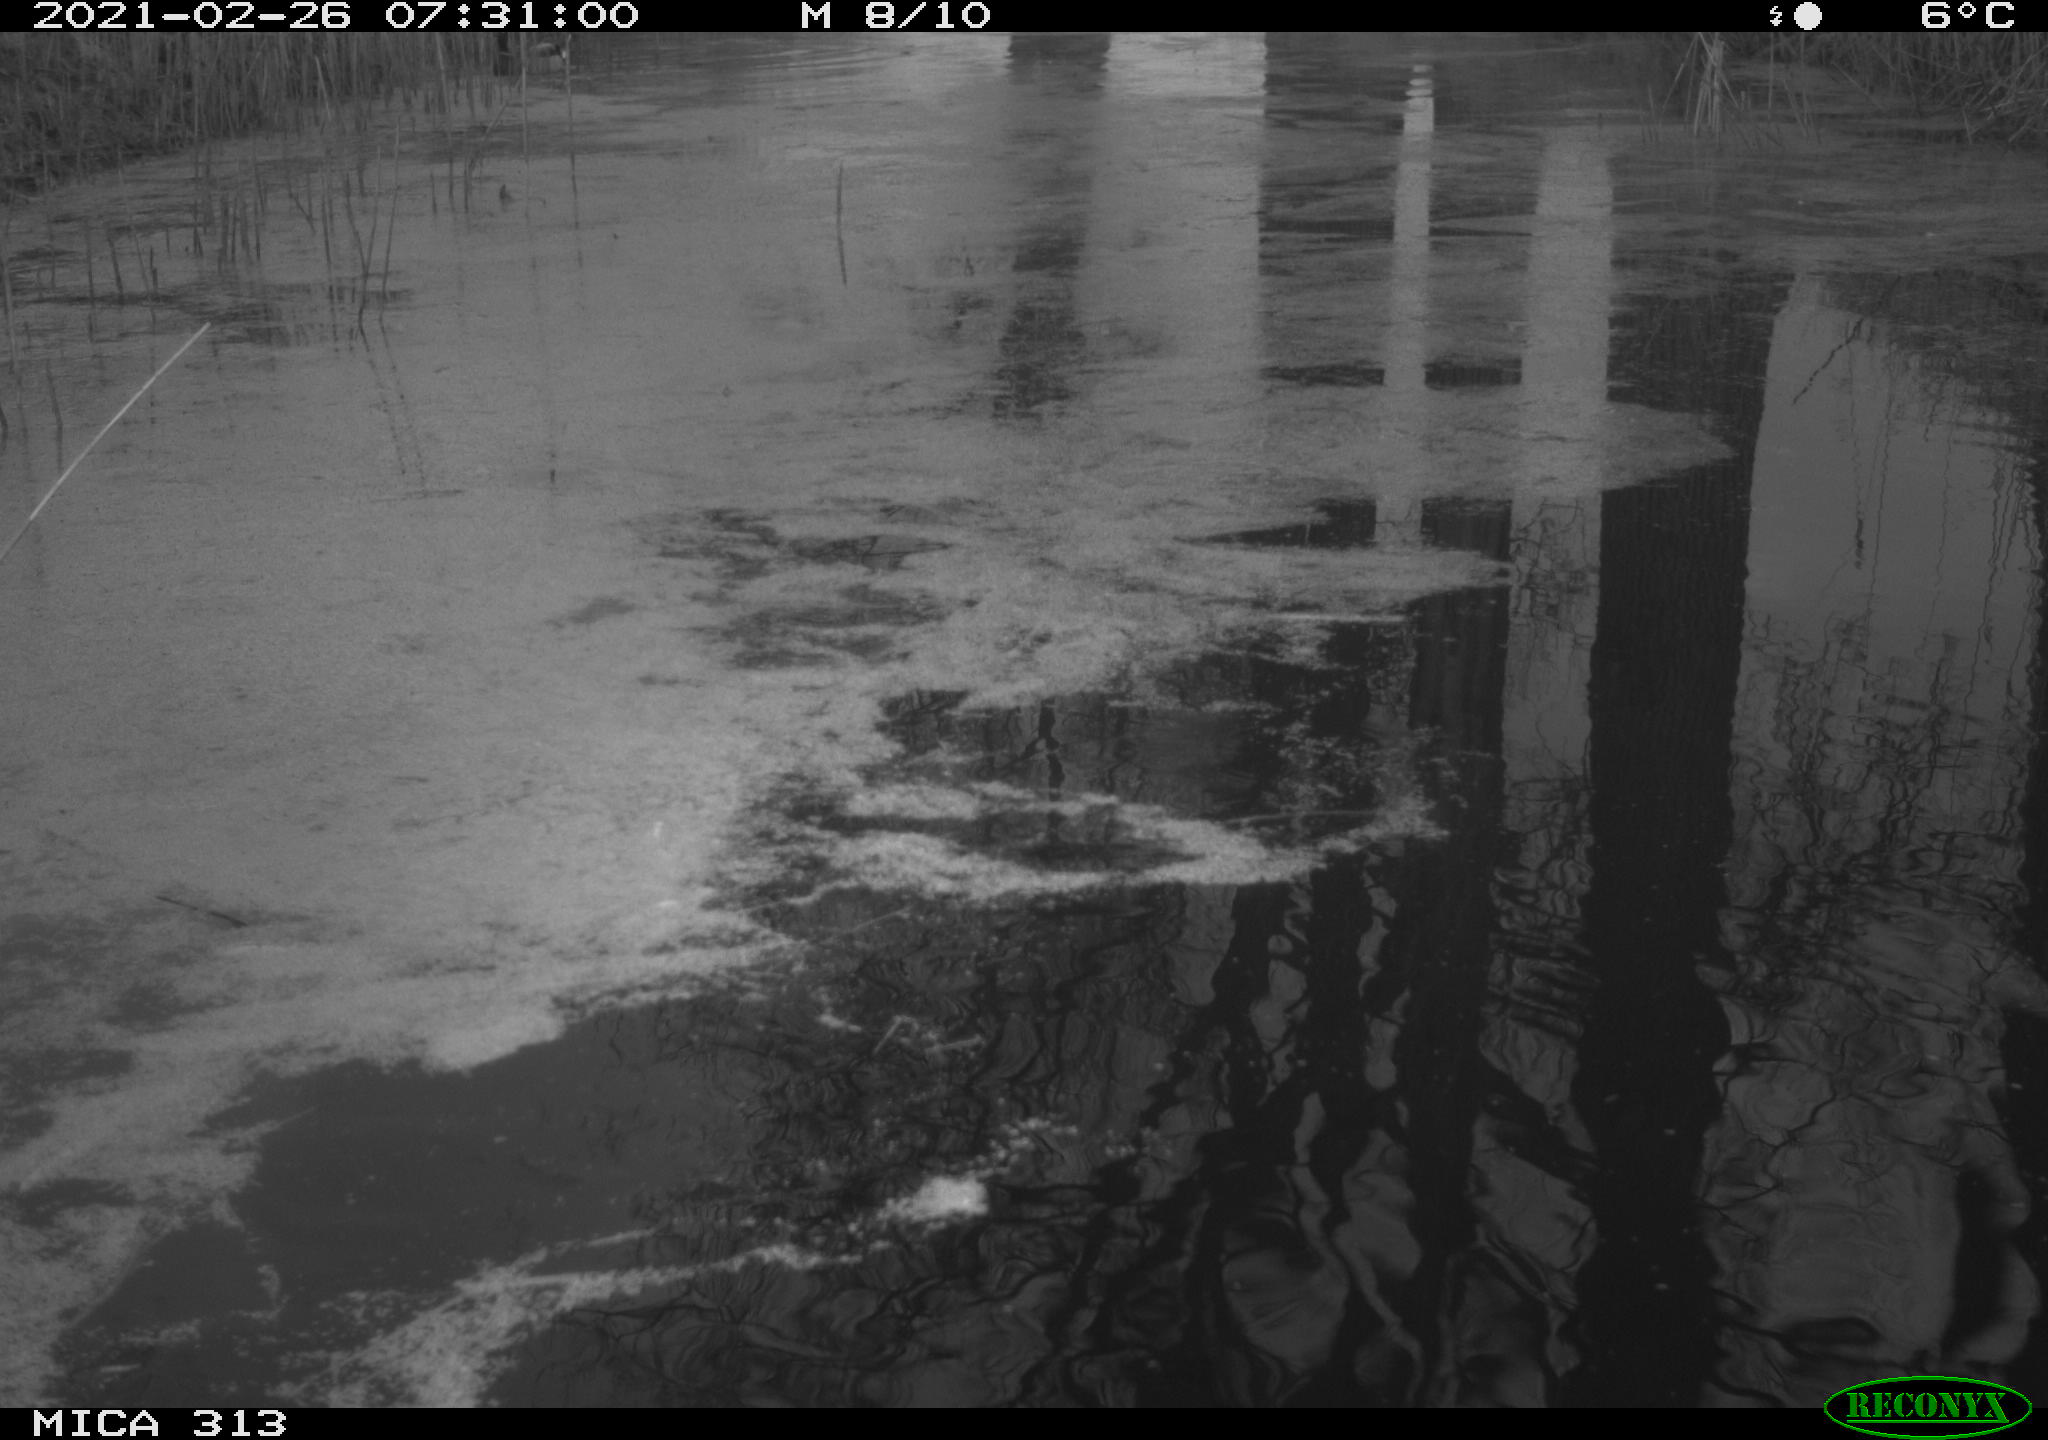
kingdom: Animalia
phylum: Chordata
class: Aves
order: Gruiformes
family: Rallidae
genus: Gallinula
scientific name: Gallinula chloropus
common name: Common moorhen
